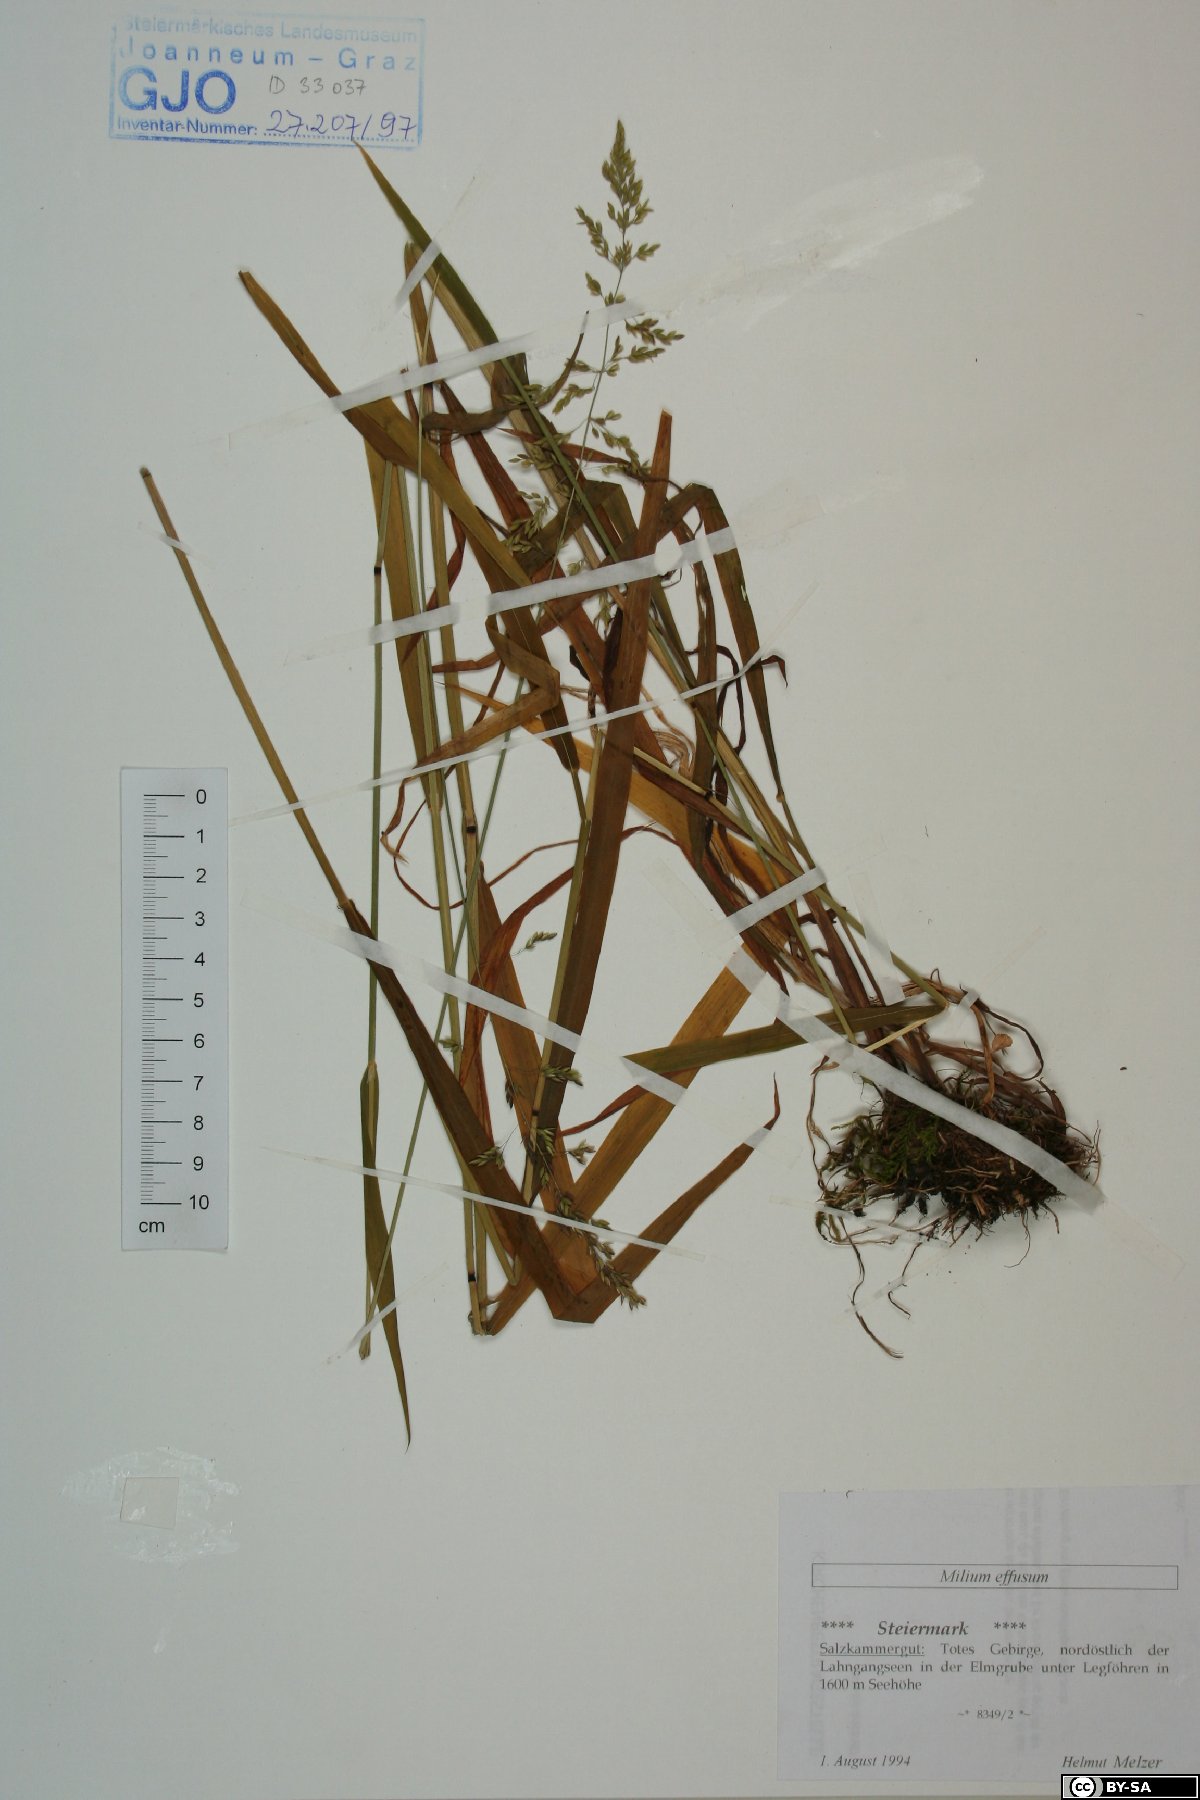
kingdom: Plantae
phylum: Tracheophyta
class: Liliopsida
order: Poales
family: Poaceae
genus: Milium
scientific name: Milium effusum
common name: Wood millet
